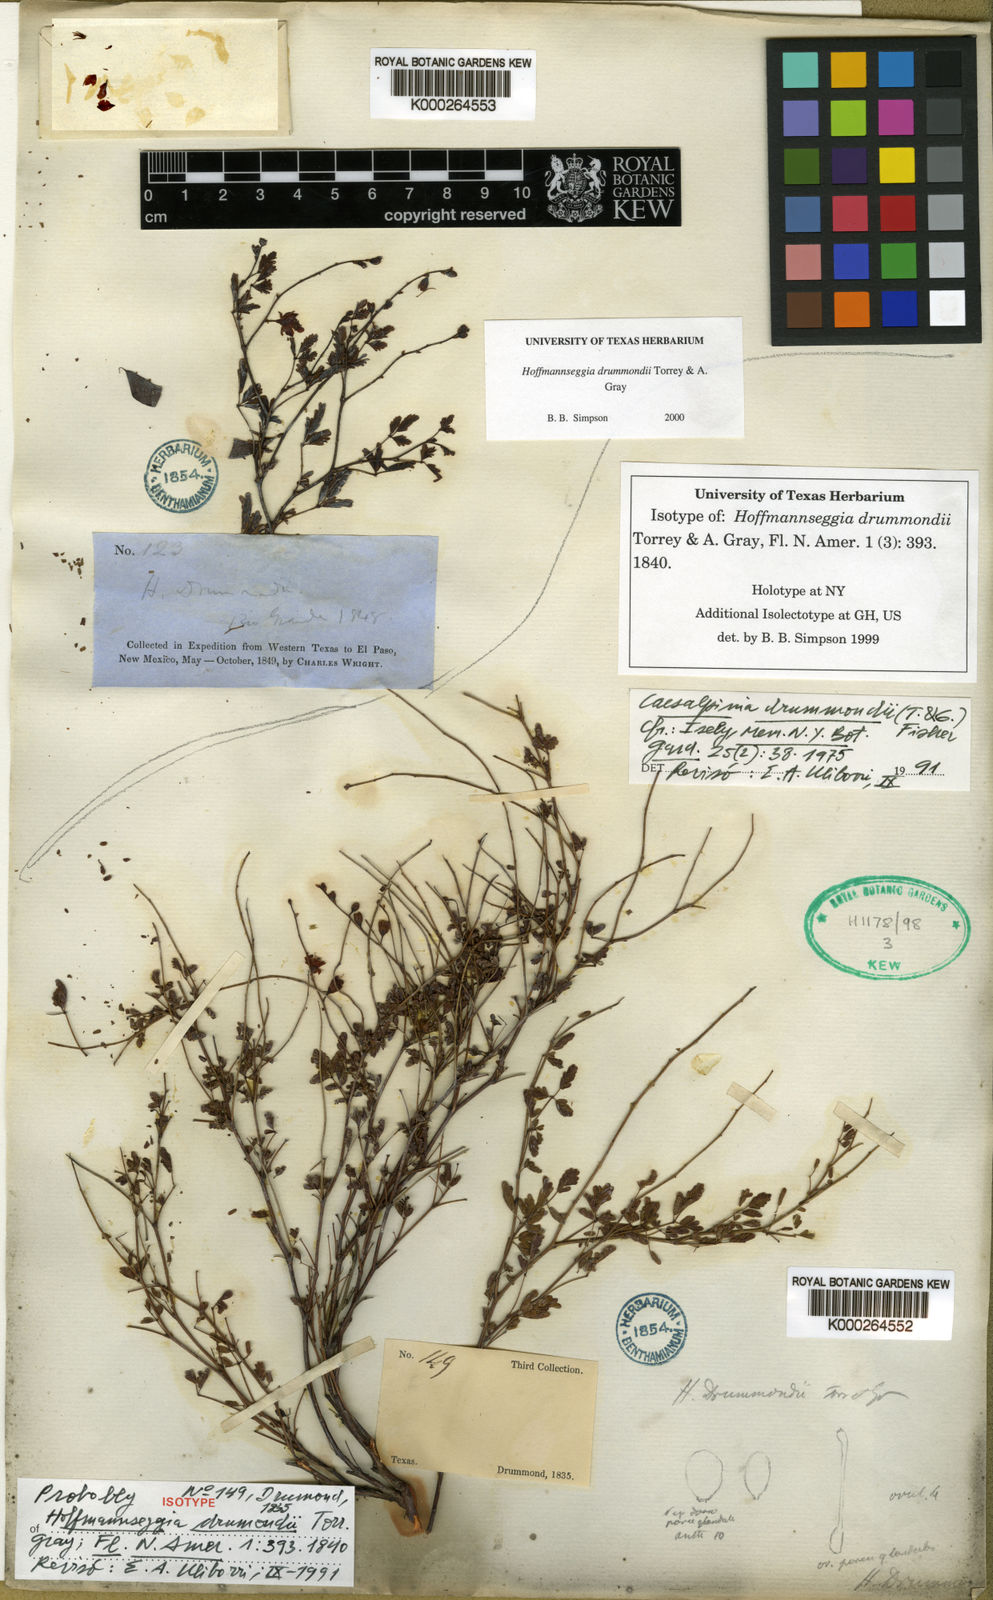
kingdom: Plantae
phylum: Tracheophyta
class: Magnoliopsida
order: Fabales
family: Fabaceae
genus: Hoffmannseggia
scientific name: Hoffmannseggia drummondii
